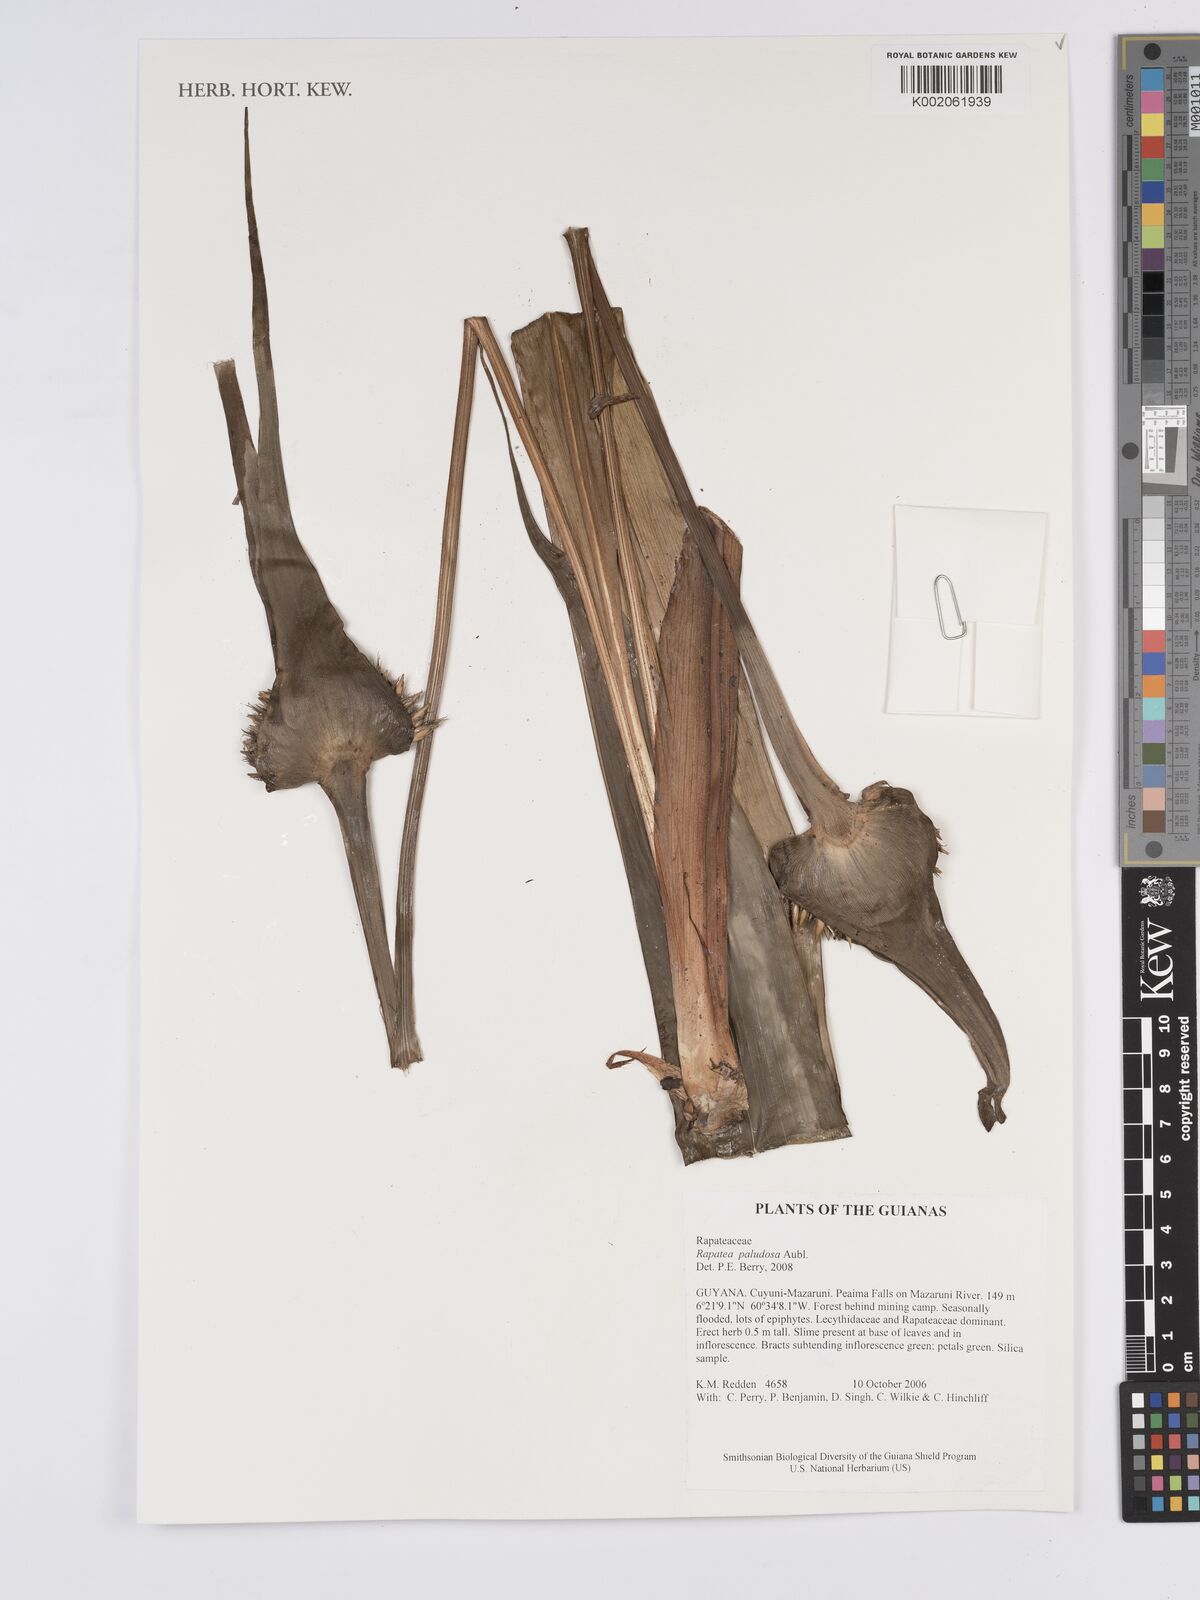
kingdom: Plantae
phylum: Tracheophyta
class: Liliopsida
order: Poales
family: Rapateaceae
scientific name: Rapateaceae
